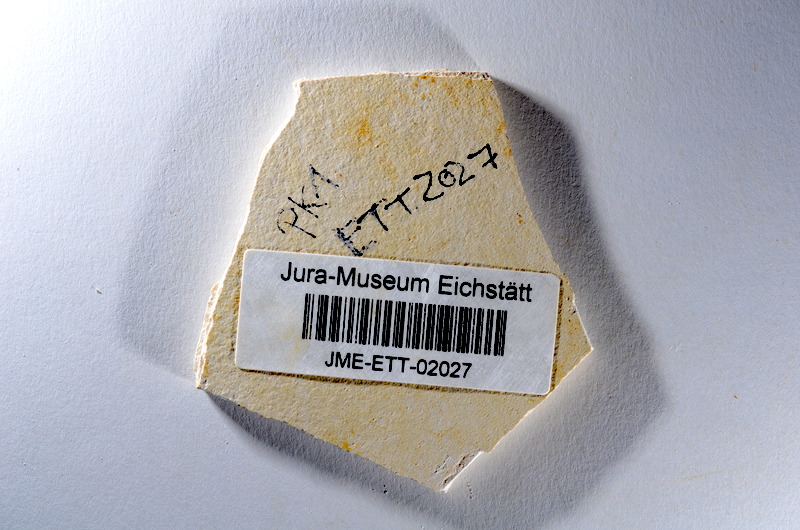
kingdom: Animalia
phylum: Chordata
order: Salmoniformes
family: Orthogonikleithridae
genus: Orthogonikleithrus
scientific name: Orthogonikleithrus hoelli
